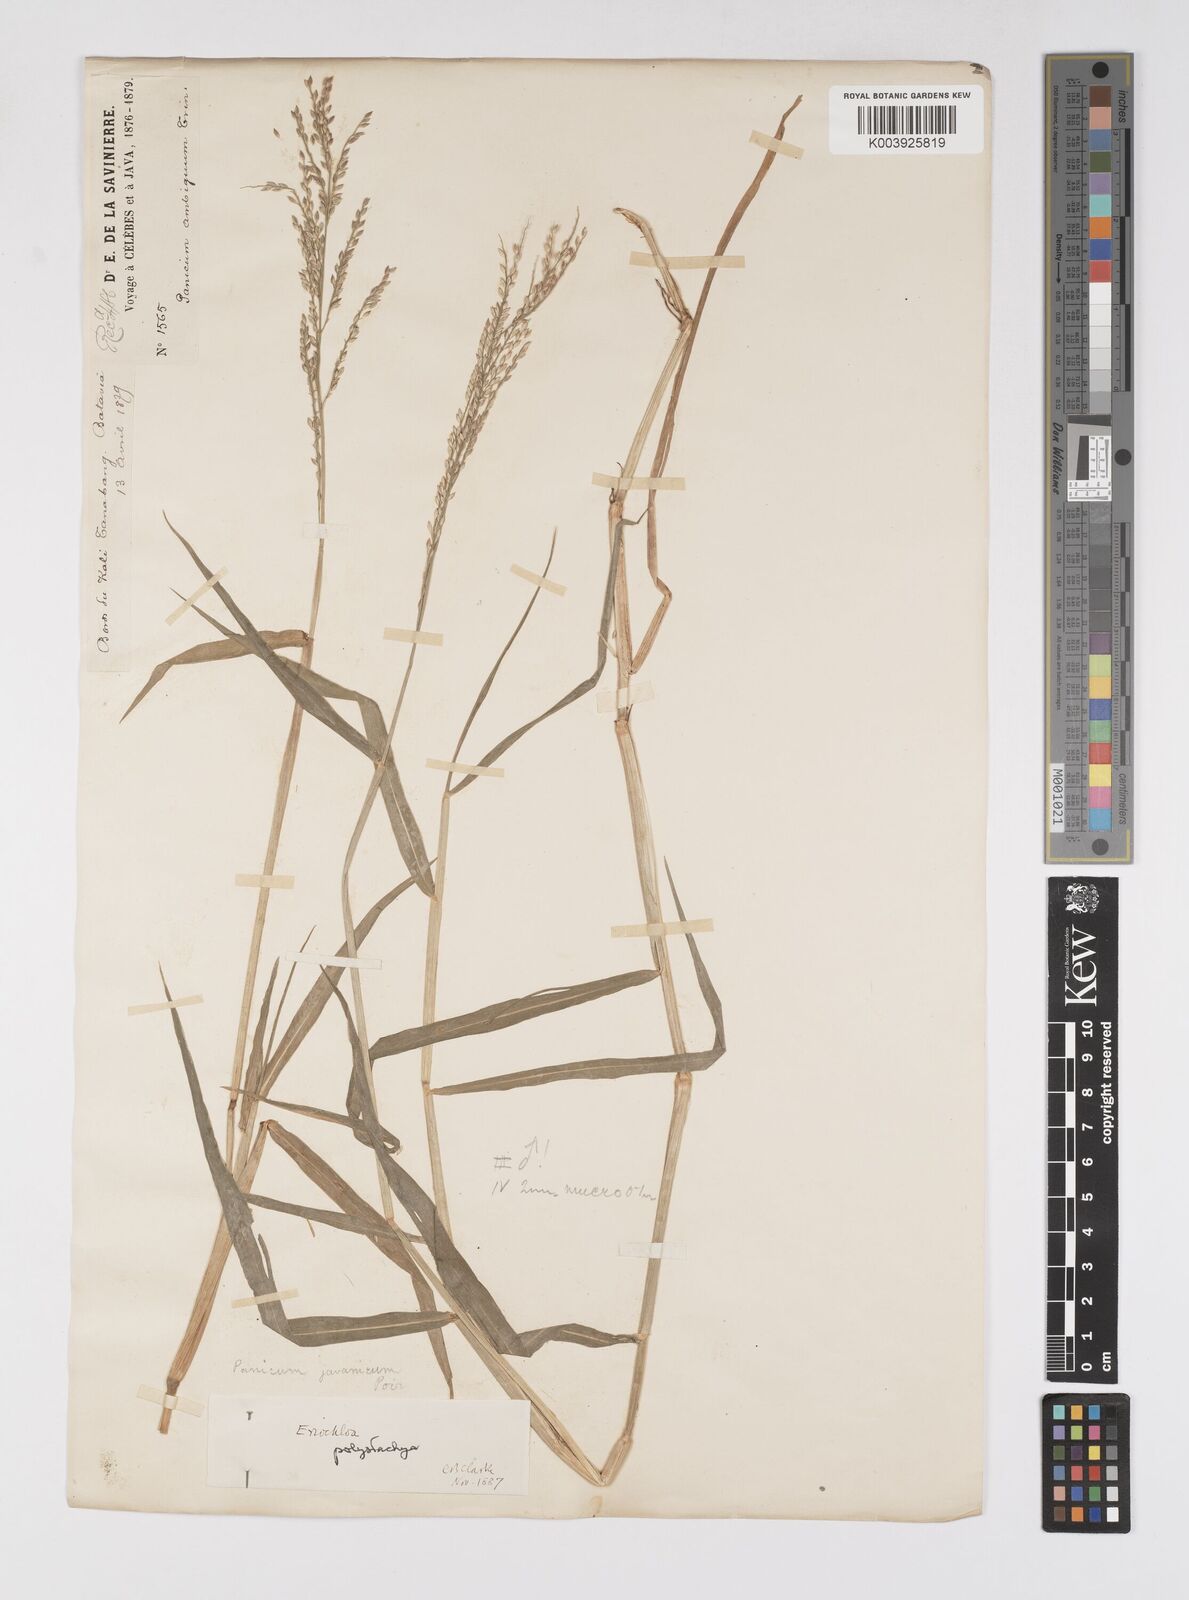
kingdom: Plantae
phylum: Tracheophyta
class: Liliopsida
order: Poales
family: Poaceae
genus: Urochloa
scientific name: Urochloa polystachya
